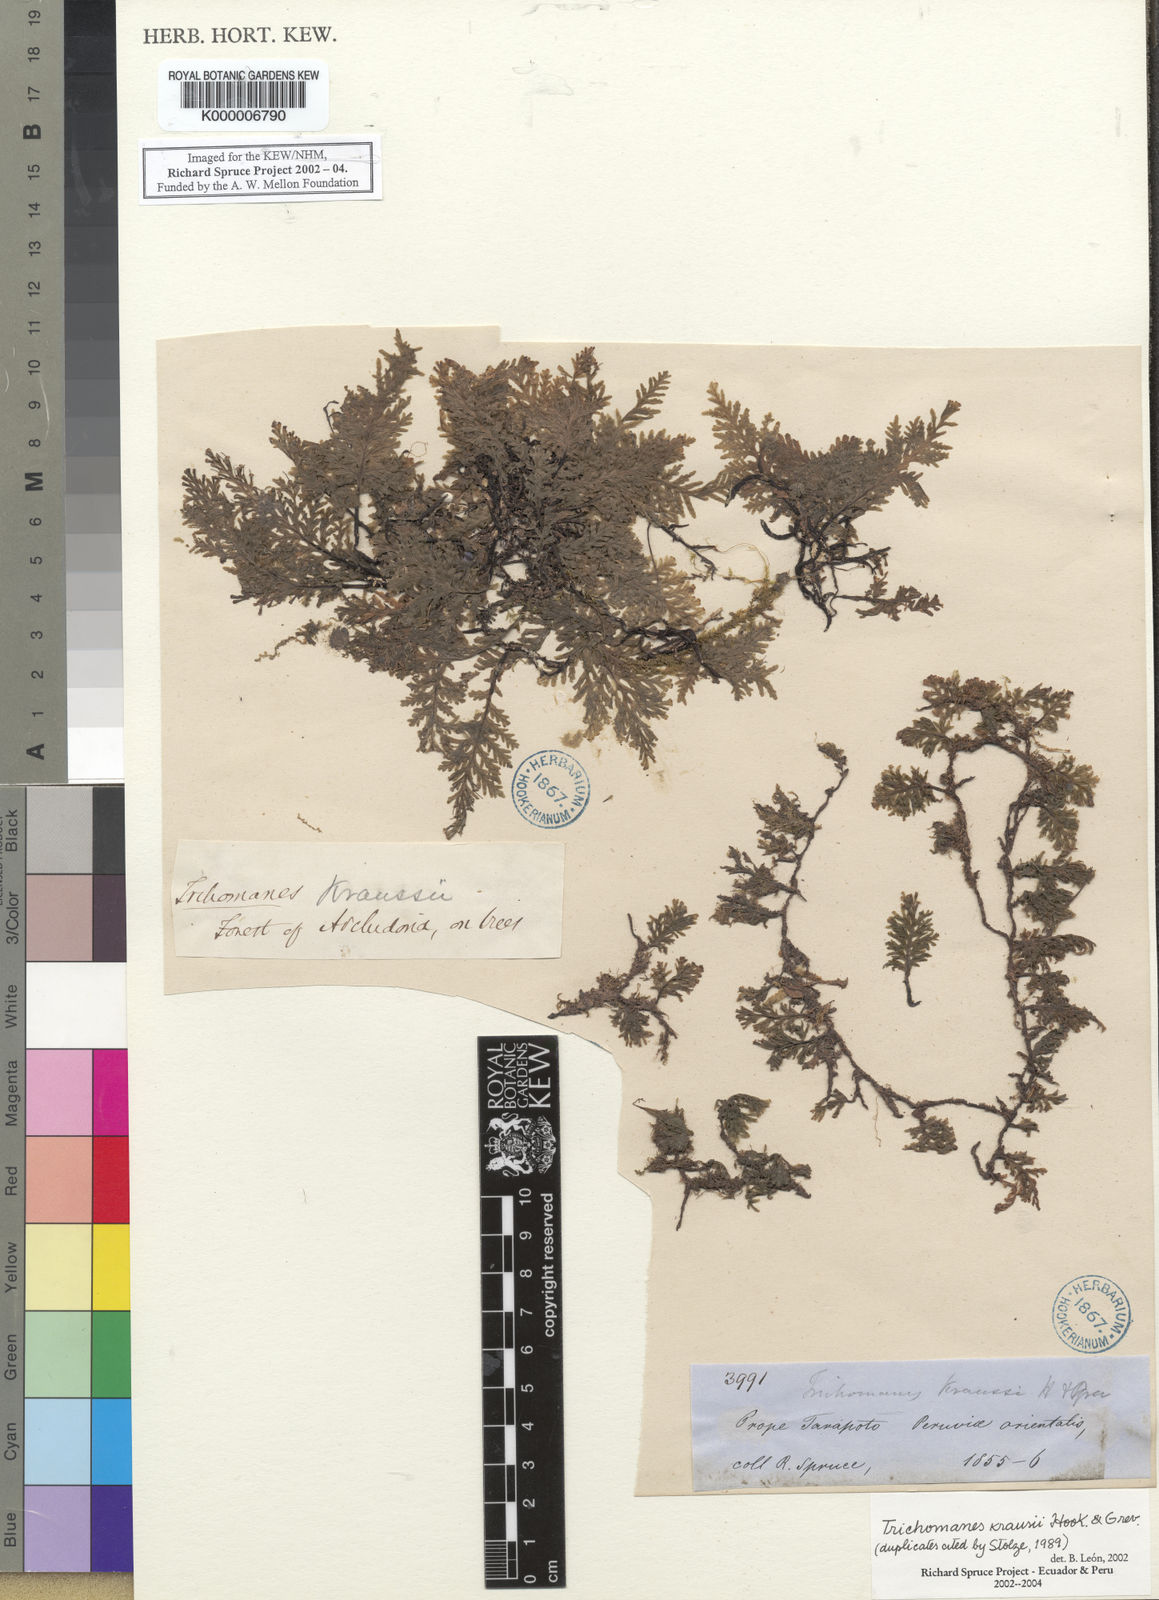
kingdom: Plantae
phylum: Tracheophyta
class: Polypodiopsida
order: Hymenophyllales
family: Hymenophyllaceae
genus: Didymoglossum
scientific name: Didymoglossum kraussii
